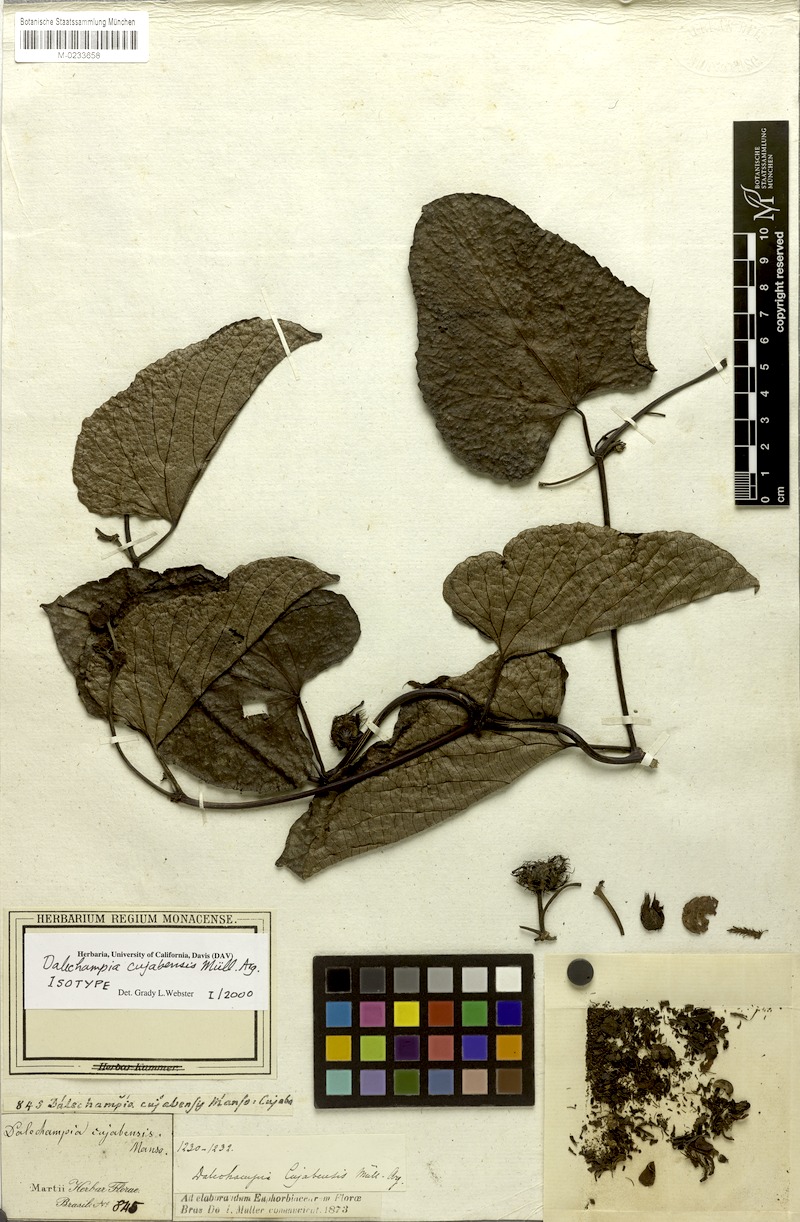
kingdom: Plantae
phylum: Tracheophyta
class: Magnoliopsida
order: Malpighiales
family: Euphorbiaceae
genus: Dalechampia
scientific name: Dalechampia cujabensis
